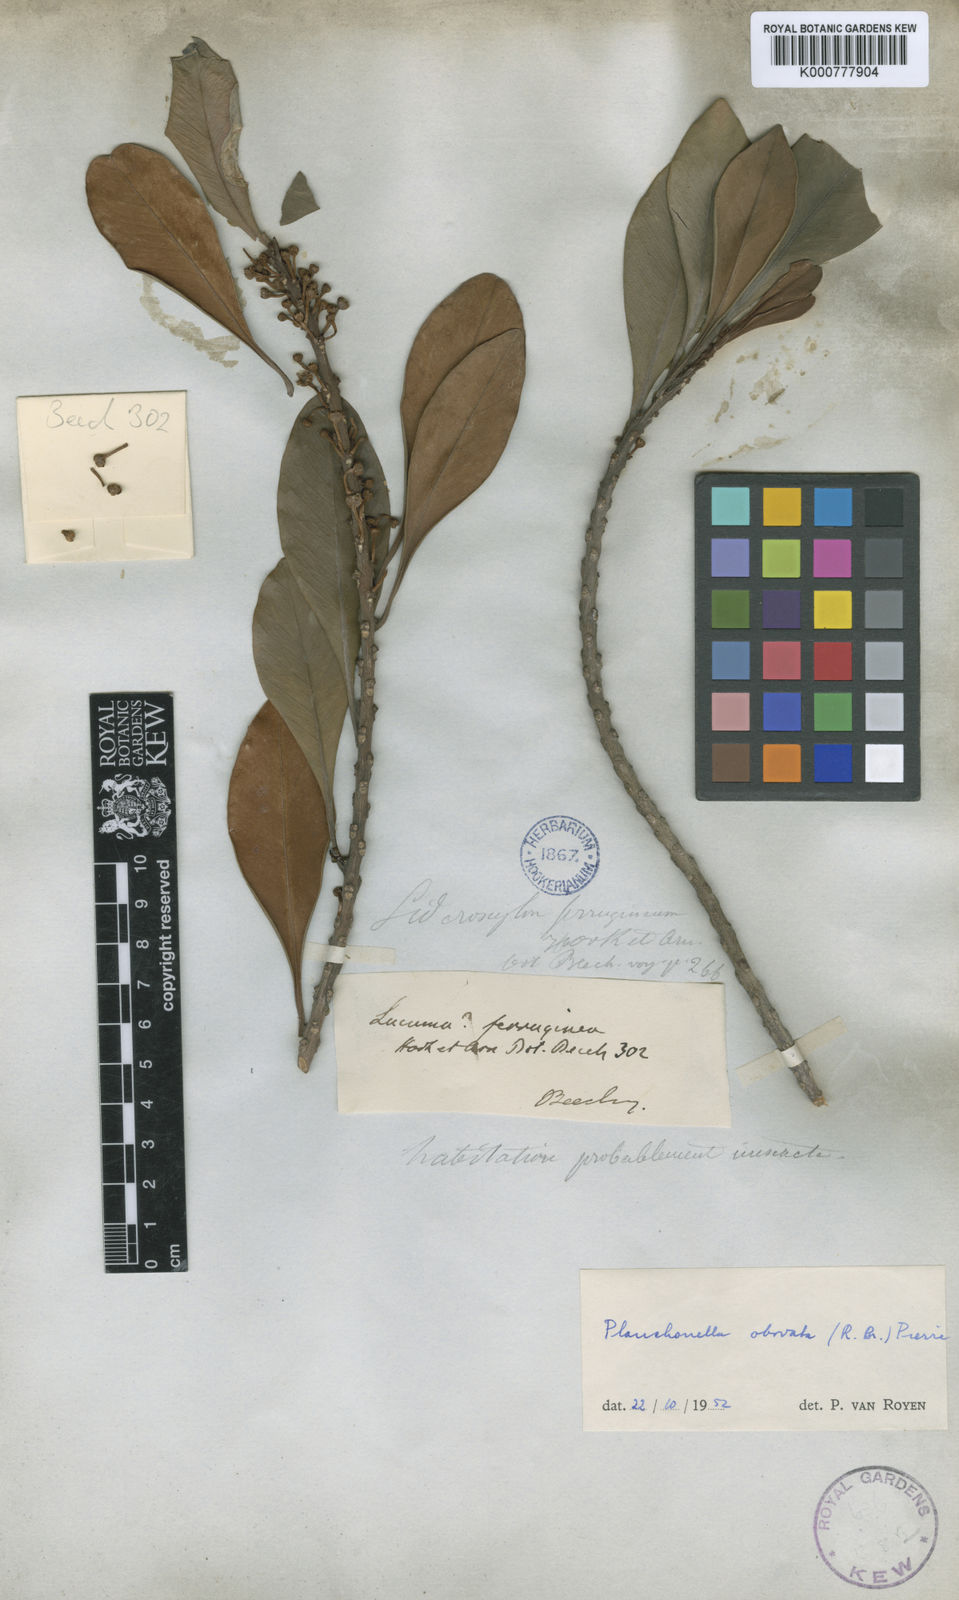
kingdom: Plantae
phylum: Tracheophyta
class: Magnoliopsida
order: Ericales
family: Sapotaceae
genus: Planchonella
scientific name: Planchonella obovata
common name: Black-ash
